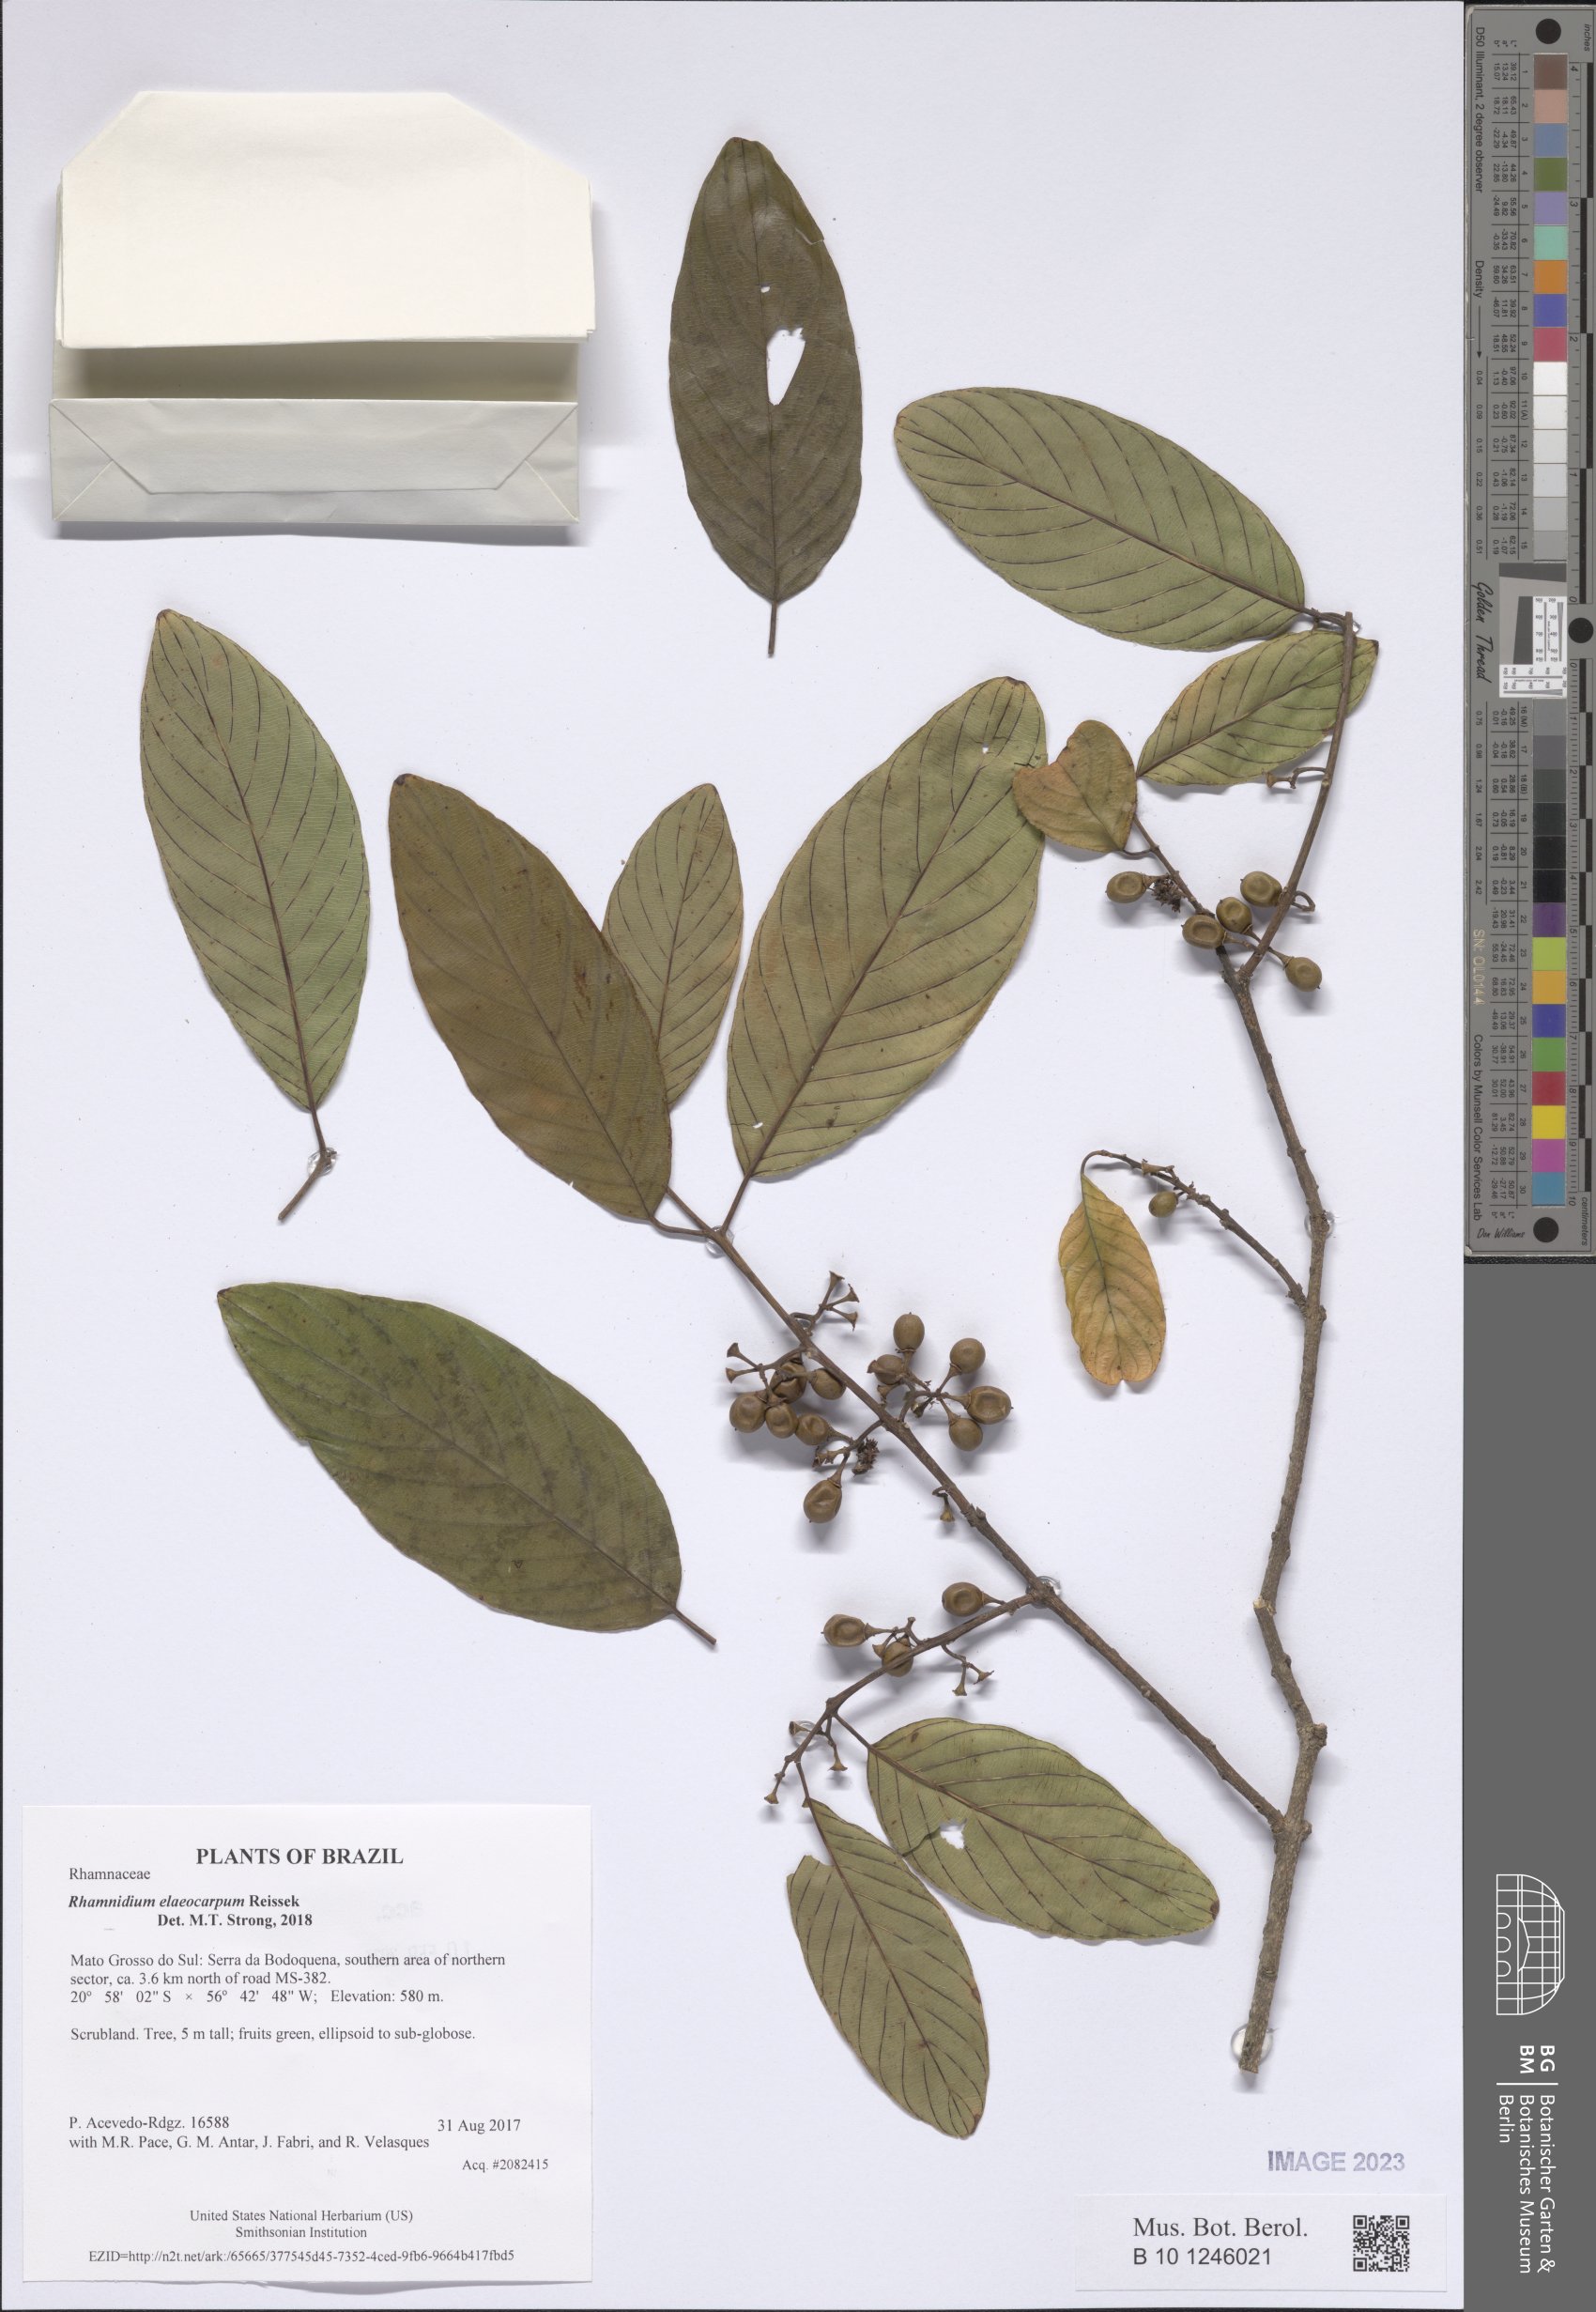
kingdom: Plantae
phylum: Tracheophyta
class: Magnoliopsida
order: Rosales
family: Rhamnaceae
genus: Rhamnidium
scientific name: Rhamnidium elaeocarpum
